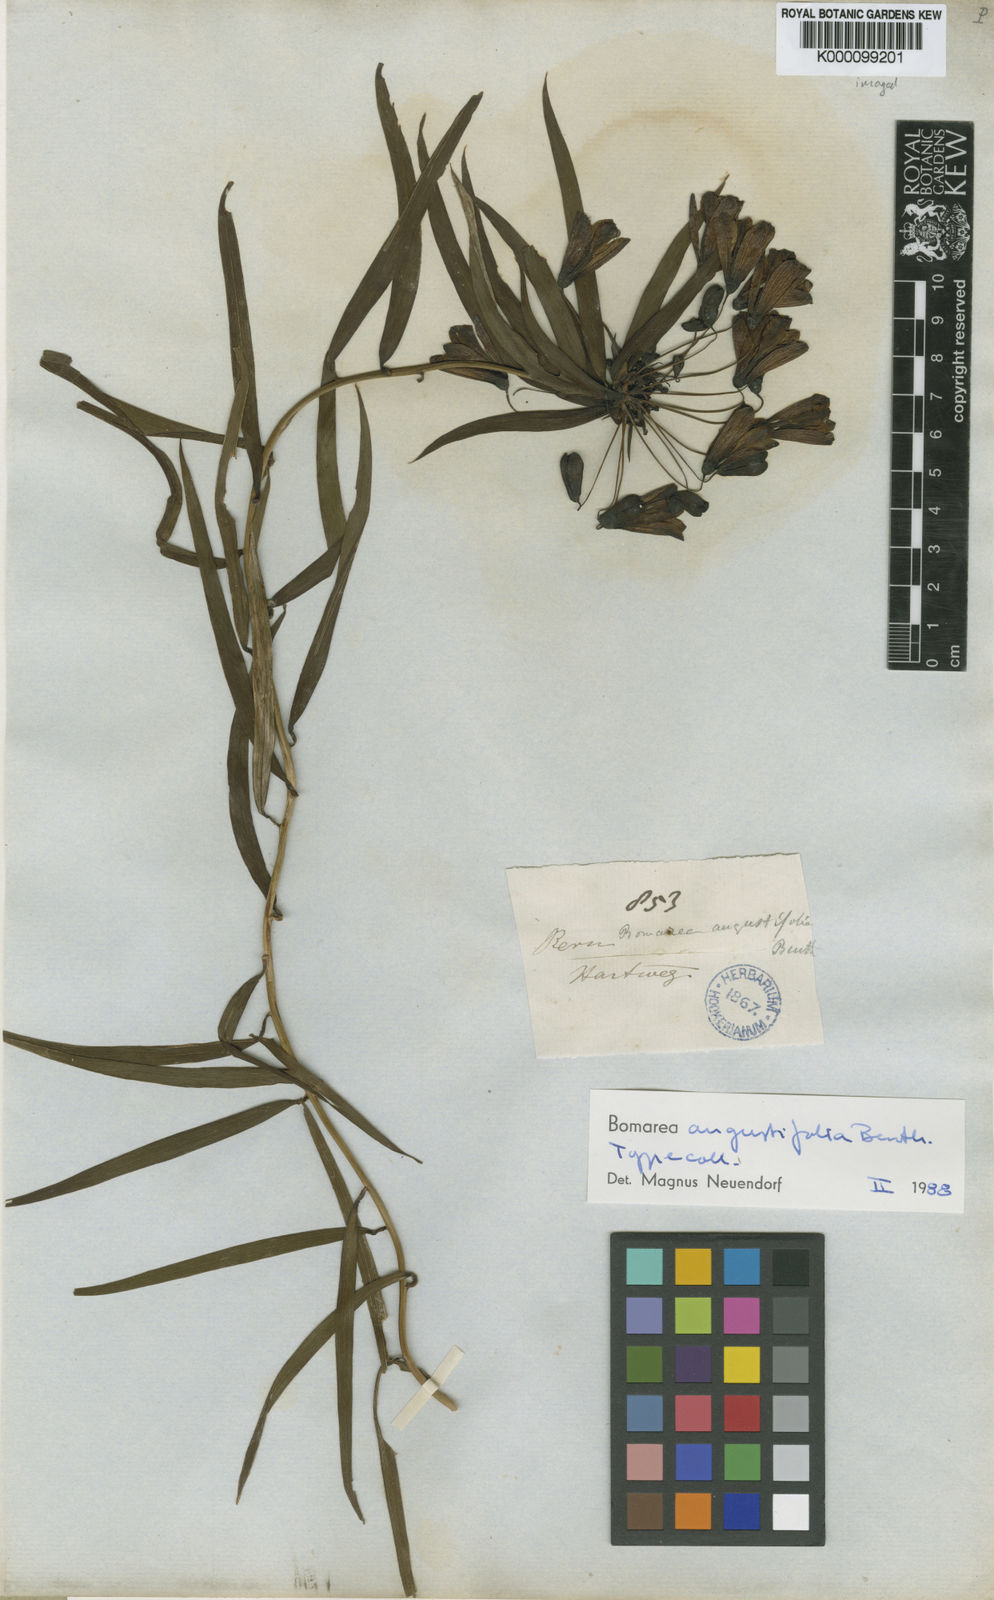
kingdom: Plantae
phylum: Tracheophyta
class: Liliopsida
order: Liliales
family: Alstroemeriaceae
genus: Bomarea
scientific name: Bomarea angulata
